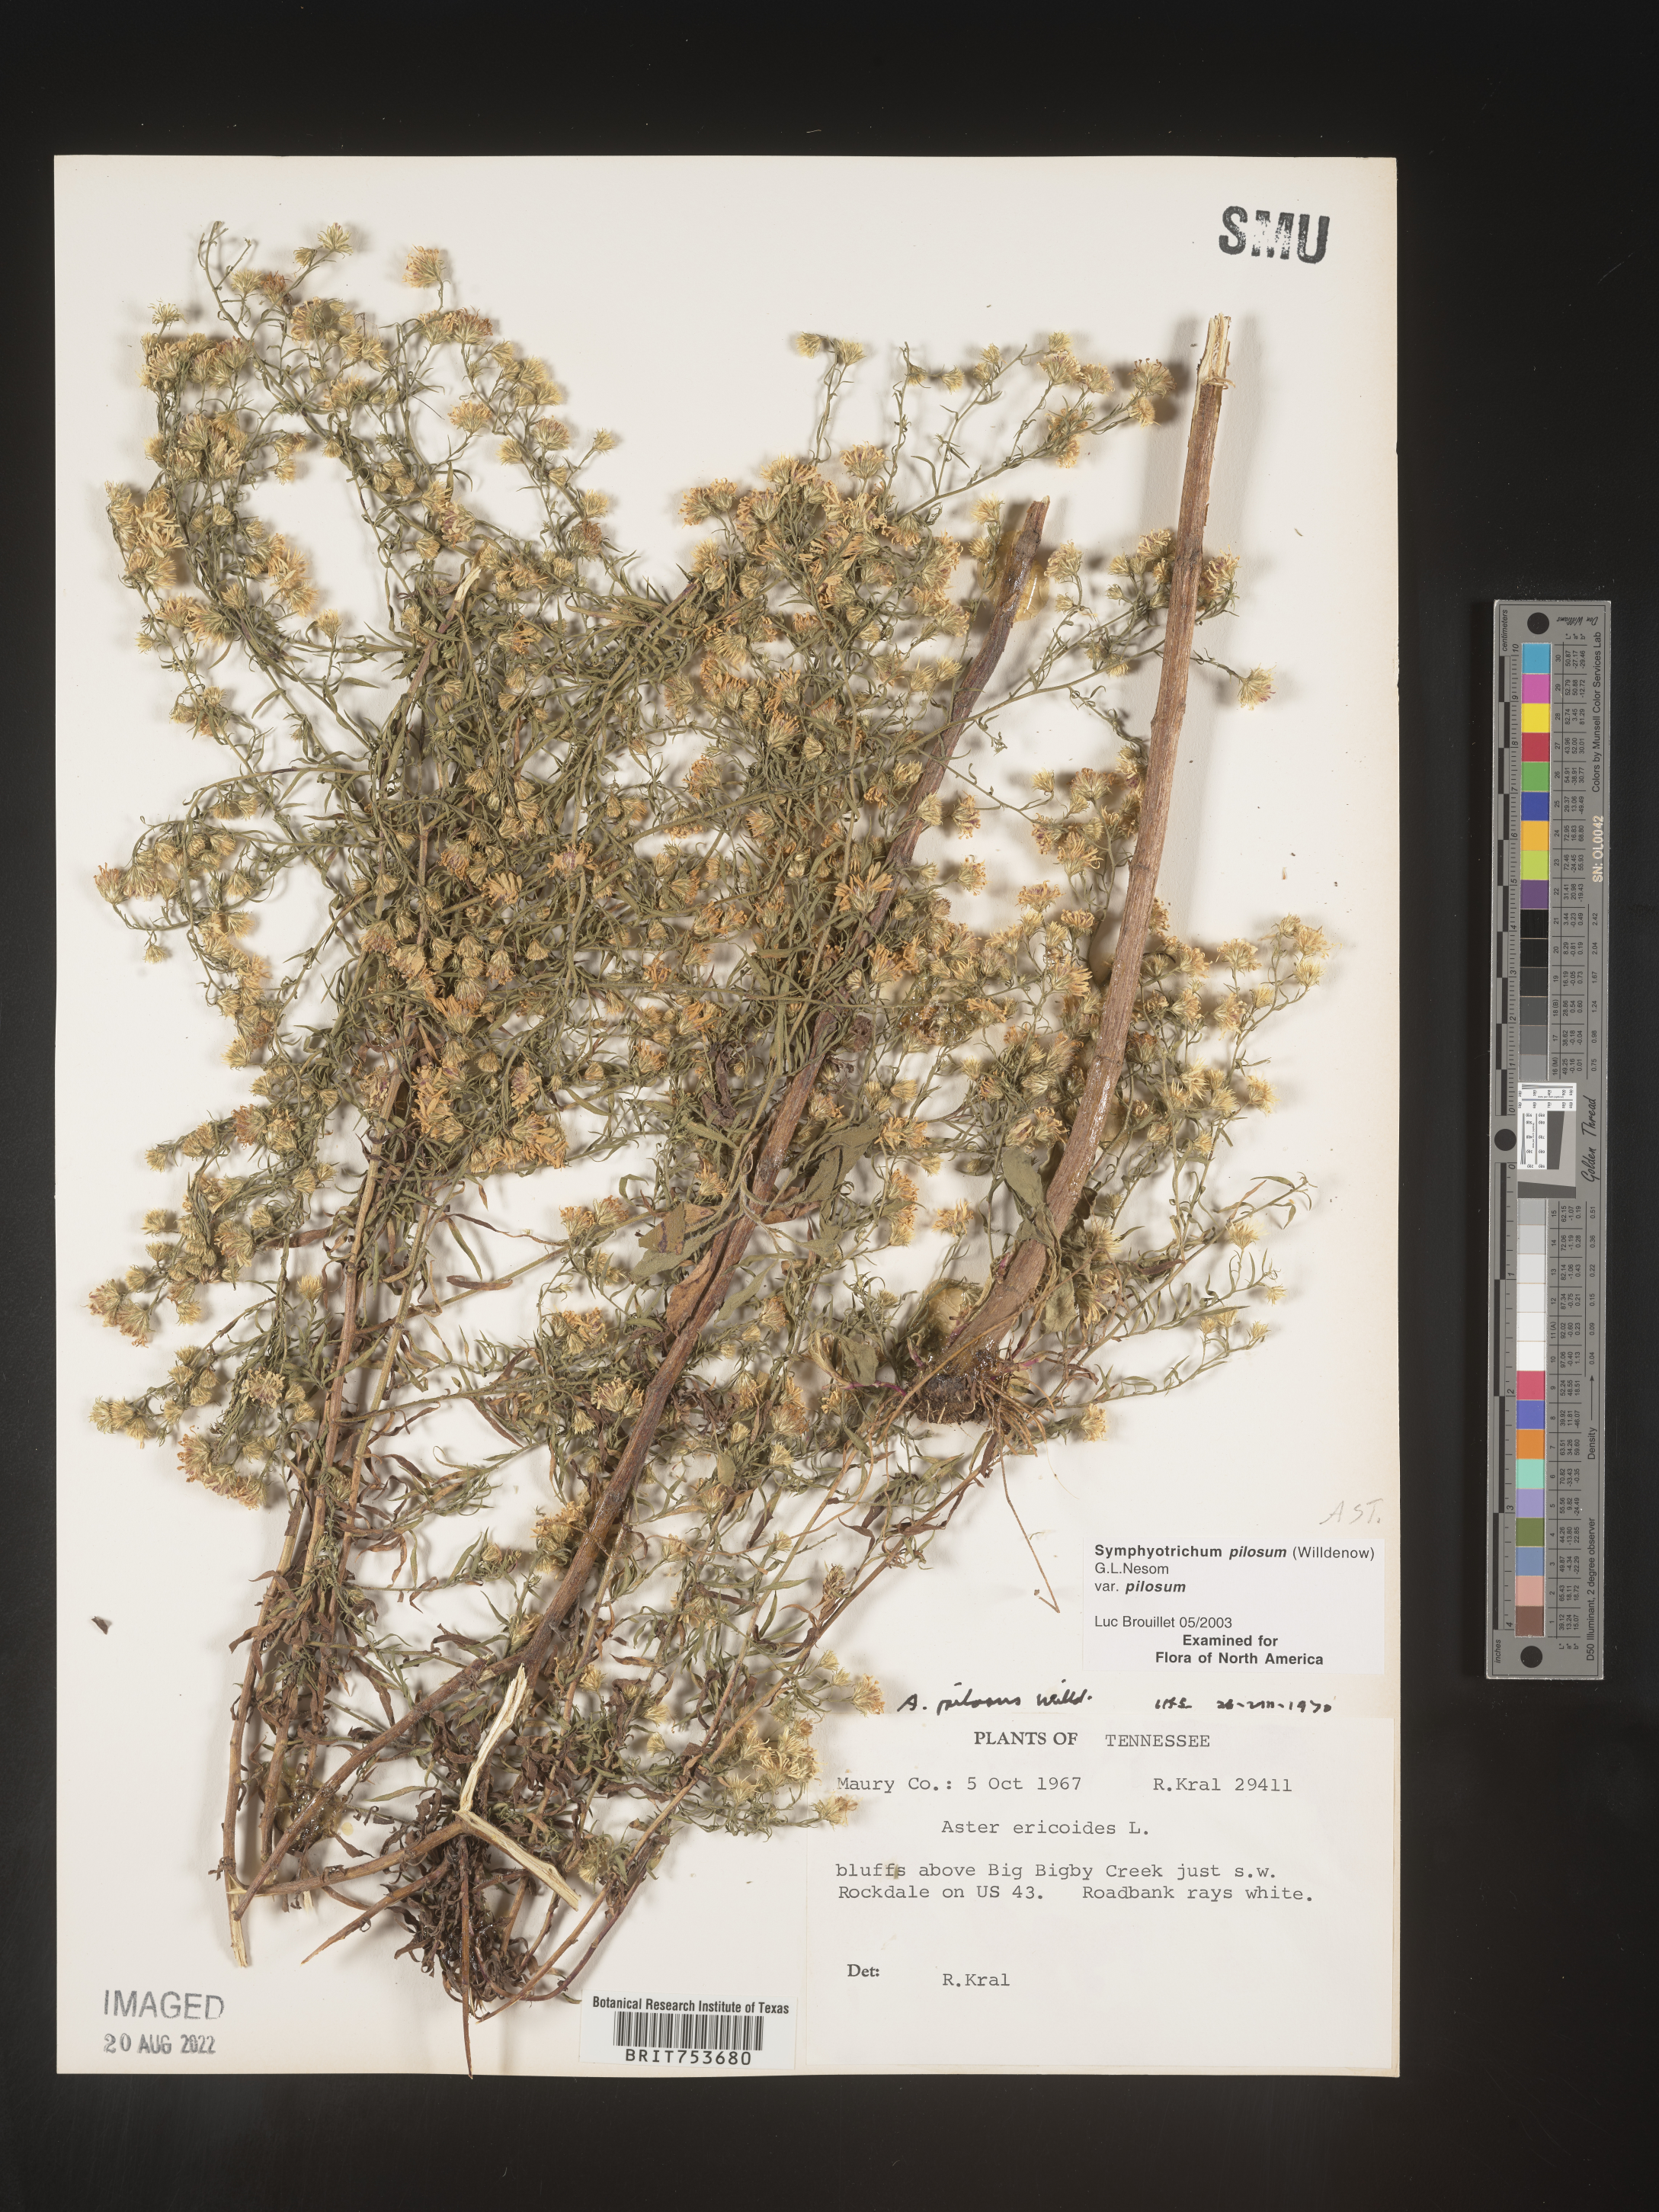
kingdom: Plantae
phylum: Tracheophyta
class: Magnoliopsida
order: Asterales
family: Asteraceae
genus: Symphyotrichum
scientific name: Symphyotrichum pilosum
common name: Awl aster
